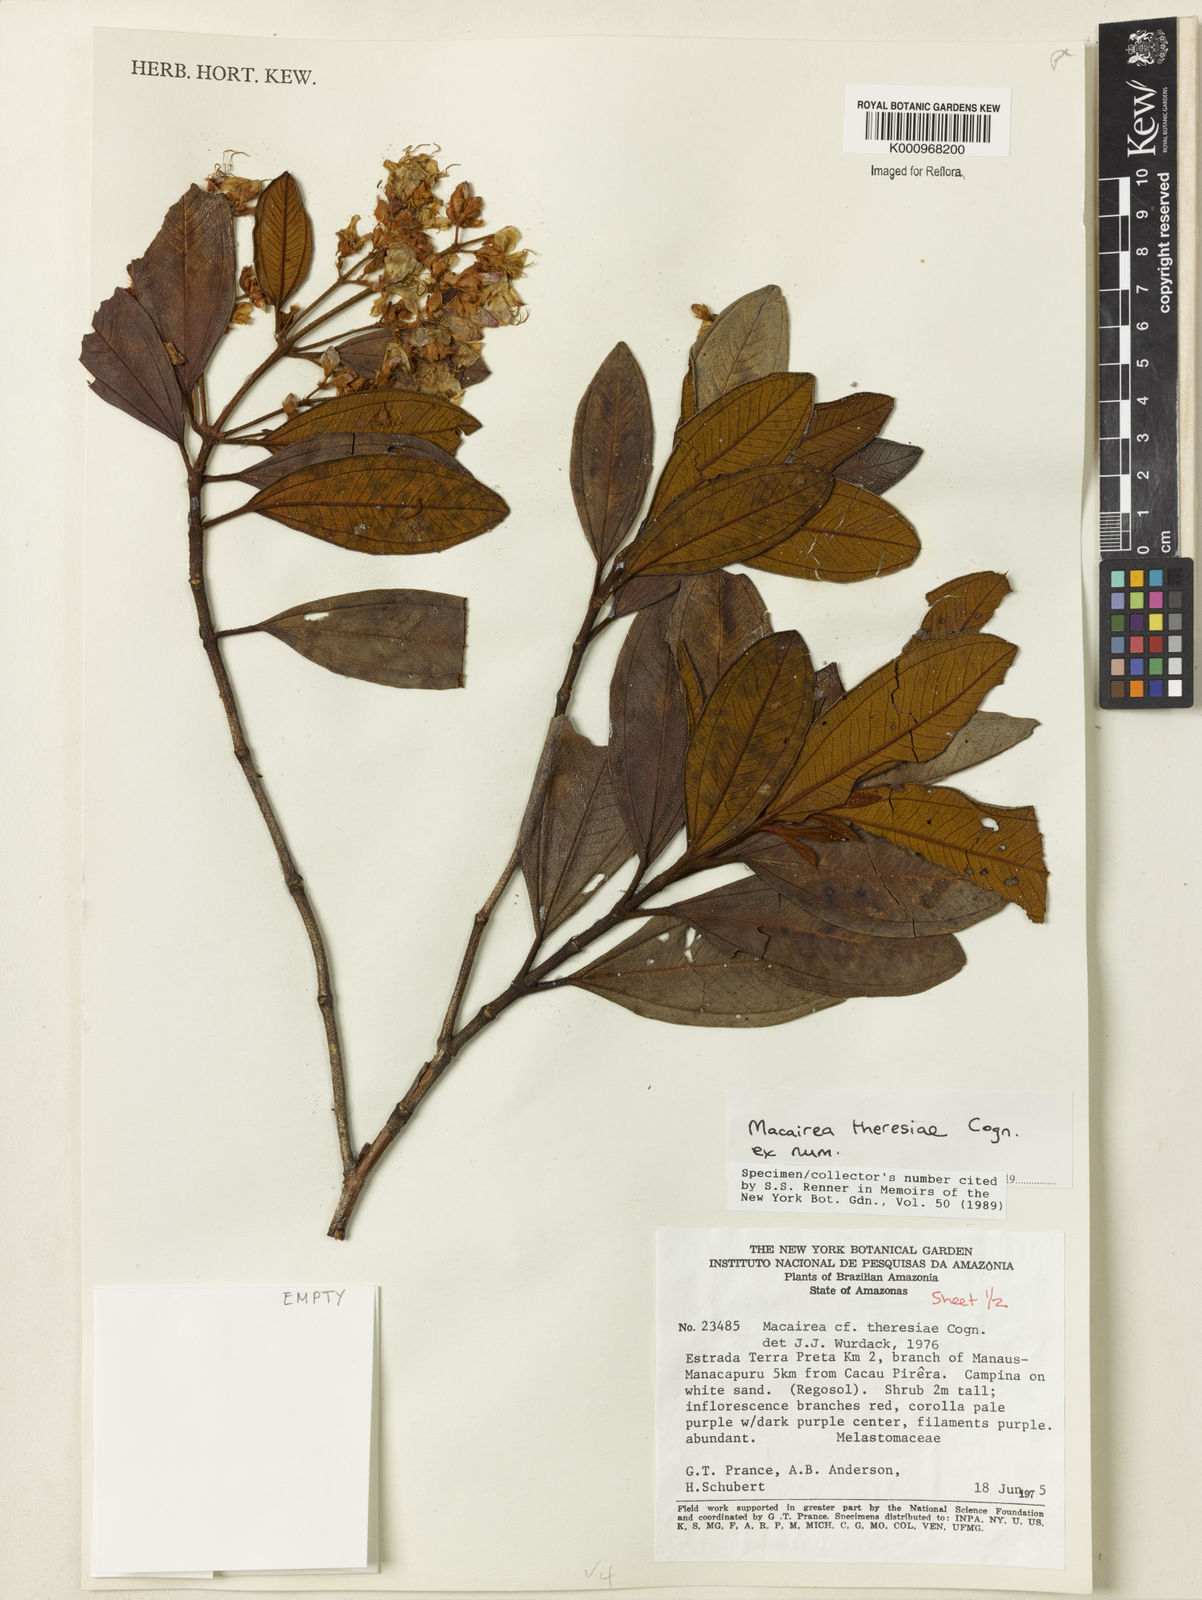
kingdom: Plantae
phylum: Tracheophyta
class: Magnoliopsida
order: Myrtales
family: Melastomataceae
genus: Macairea
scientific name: Macairea theresiae
